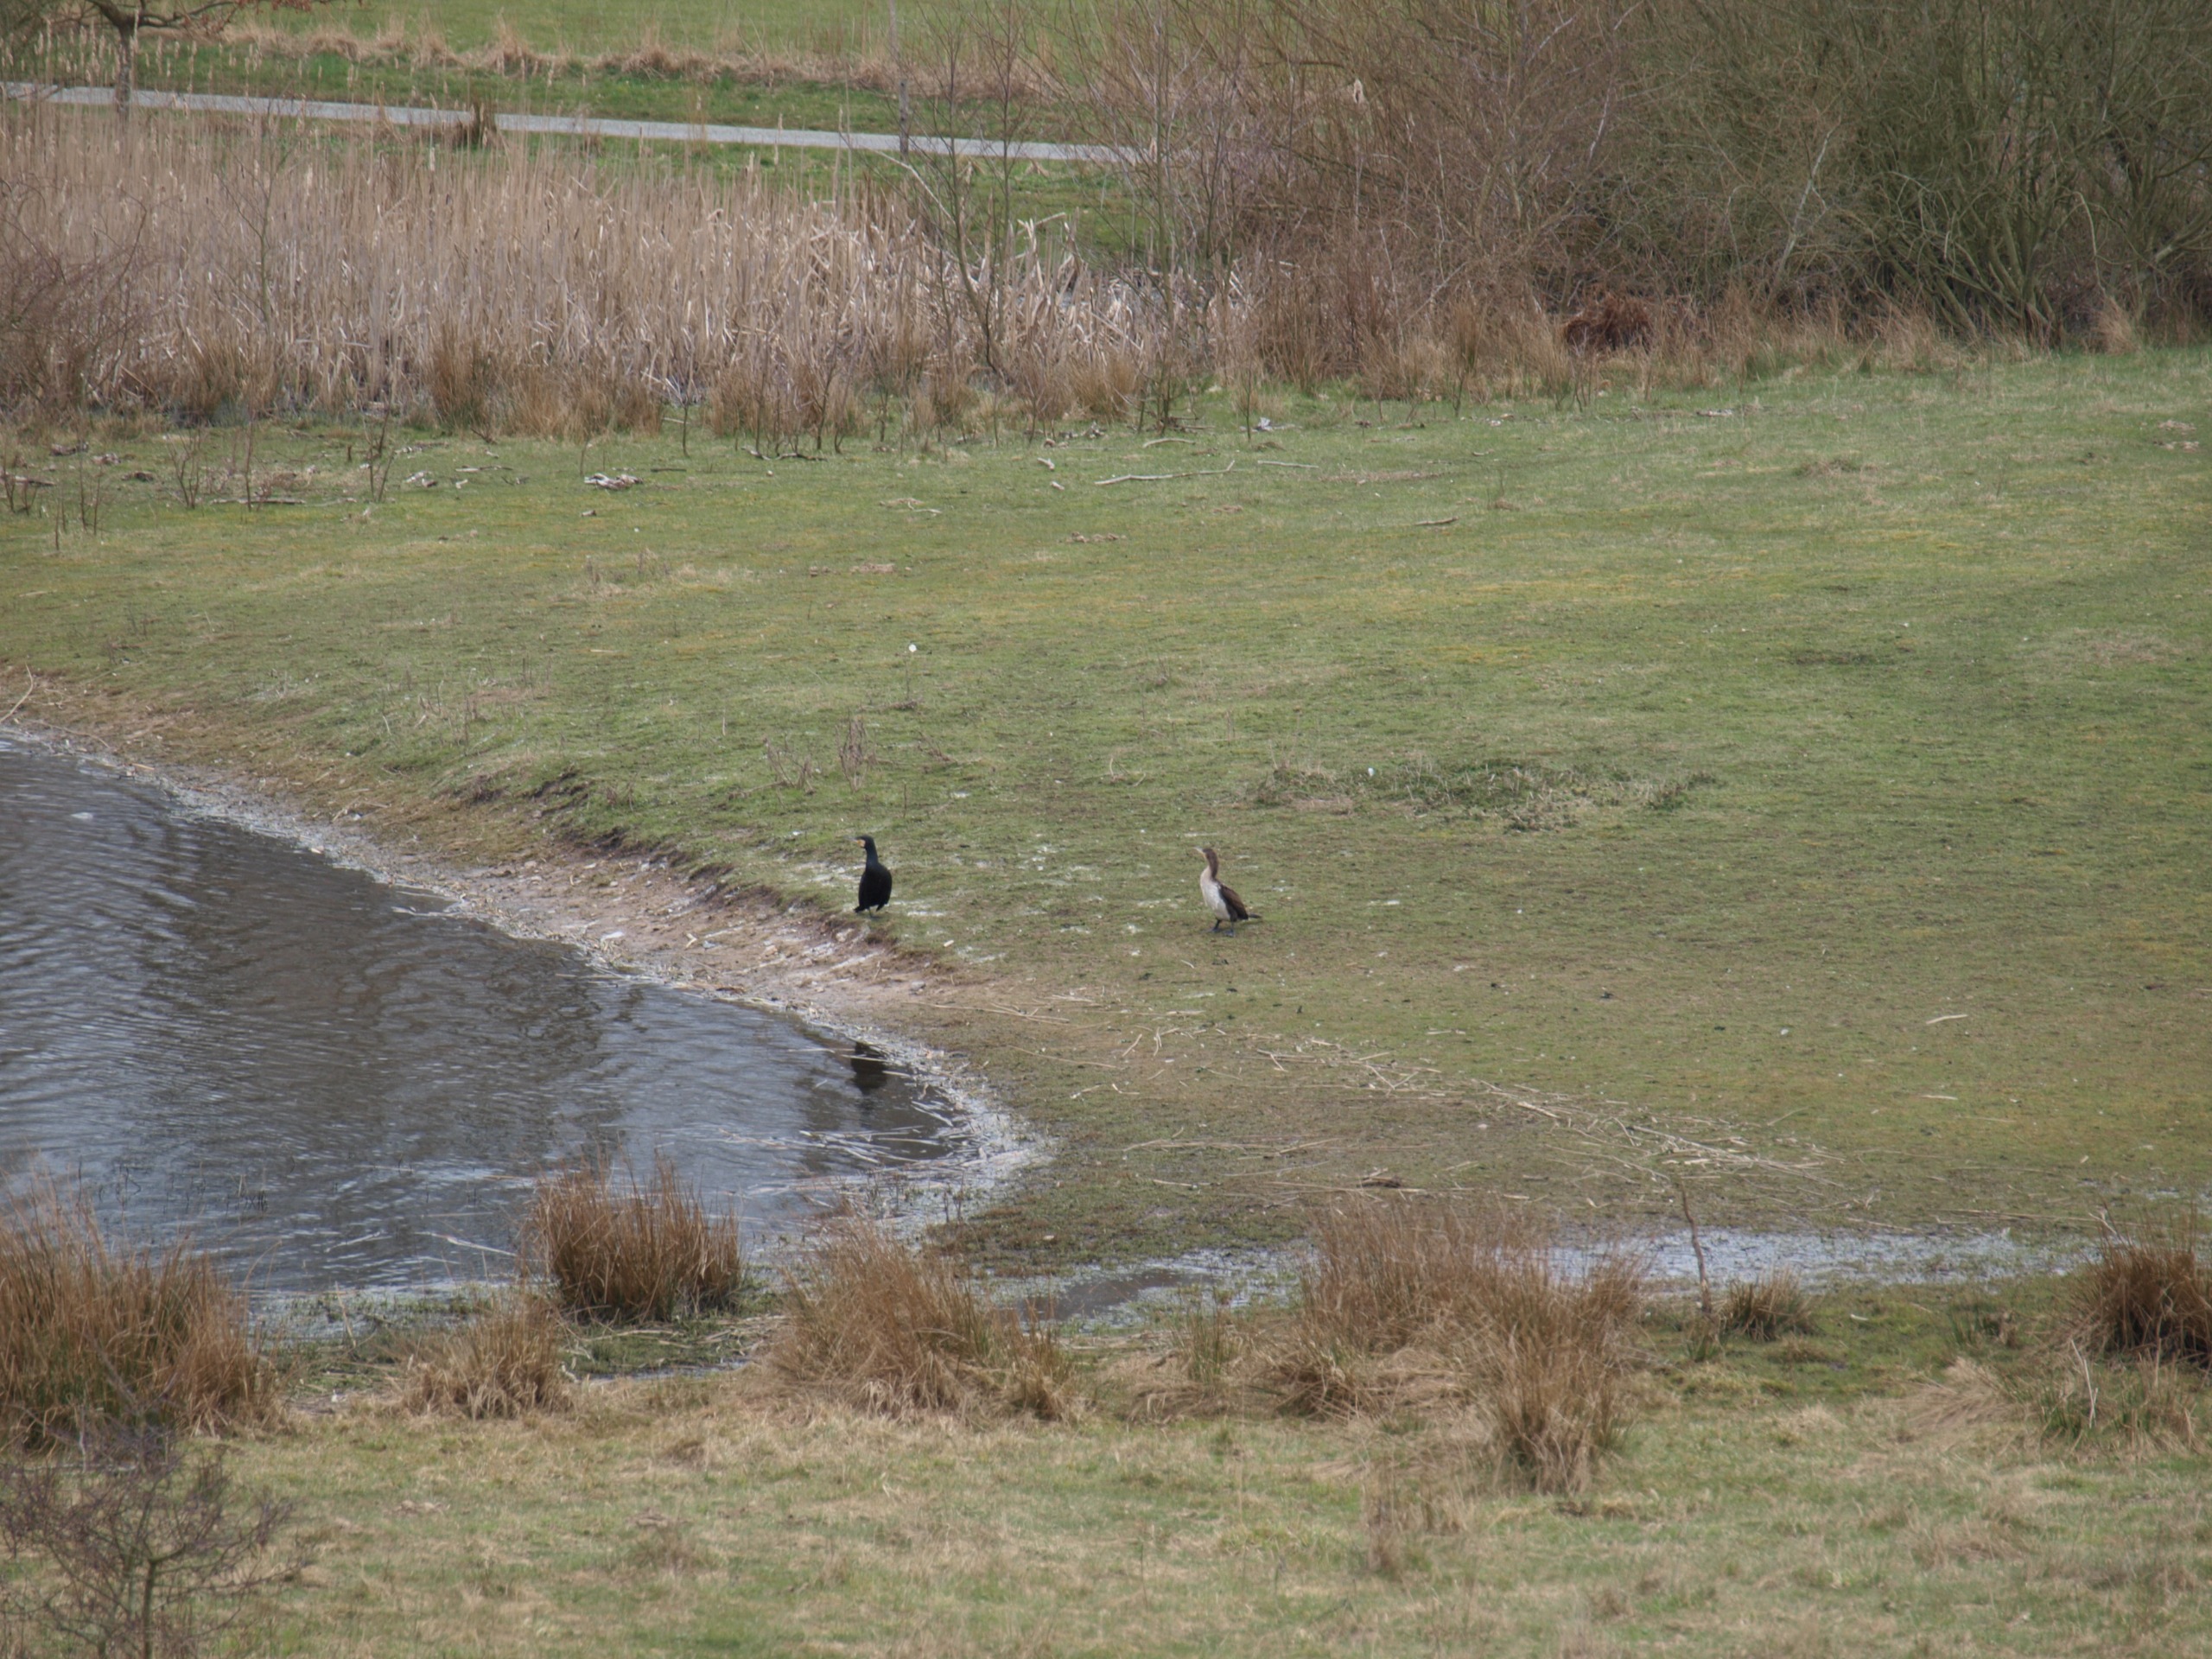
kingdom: Animalia
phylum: Chordata
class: Aves
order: Suliformes
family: Phalacrocoracidae
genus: Phalacrocorax
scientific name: Phalacrocorax carbo
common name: Skarv
